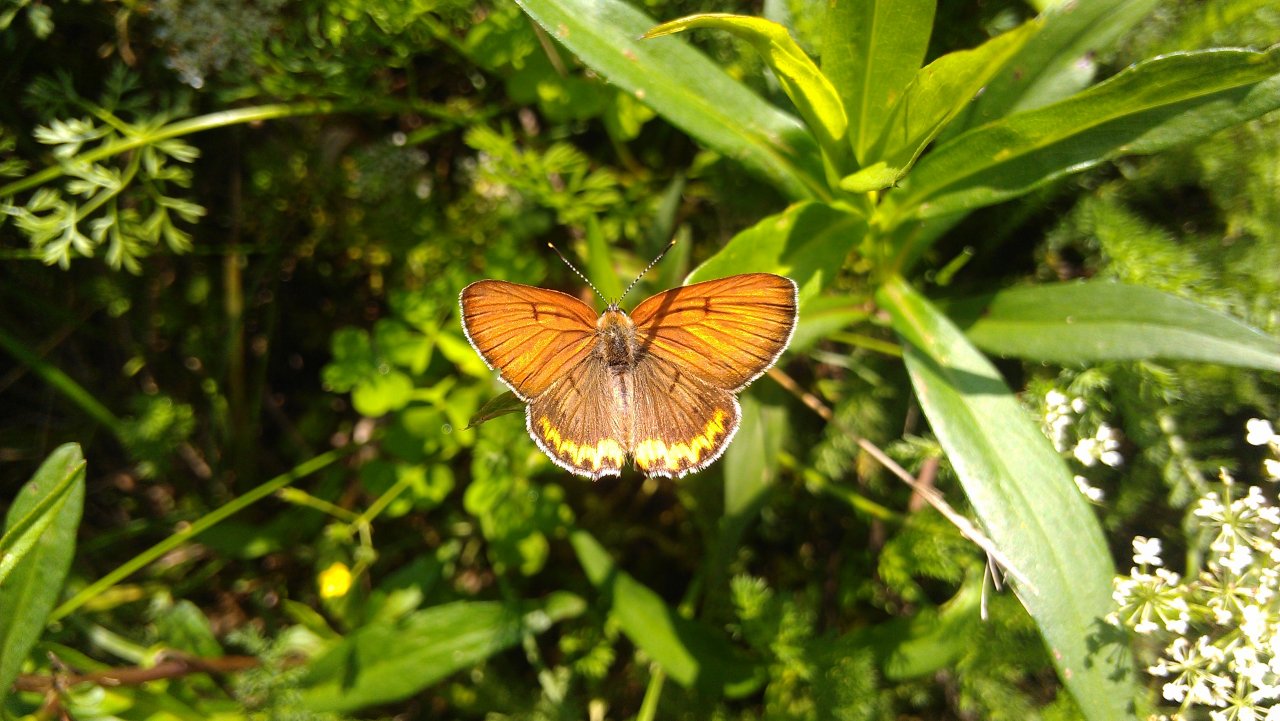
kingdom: Animalia
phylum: Arthropoda
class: Insecta
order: Lepidoptera
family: Sesiidae
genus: Sesia
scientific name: Sesia Lycaena hyllus
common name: Bronze Copper
